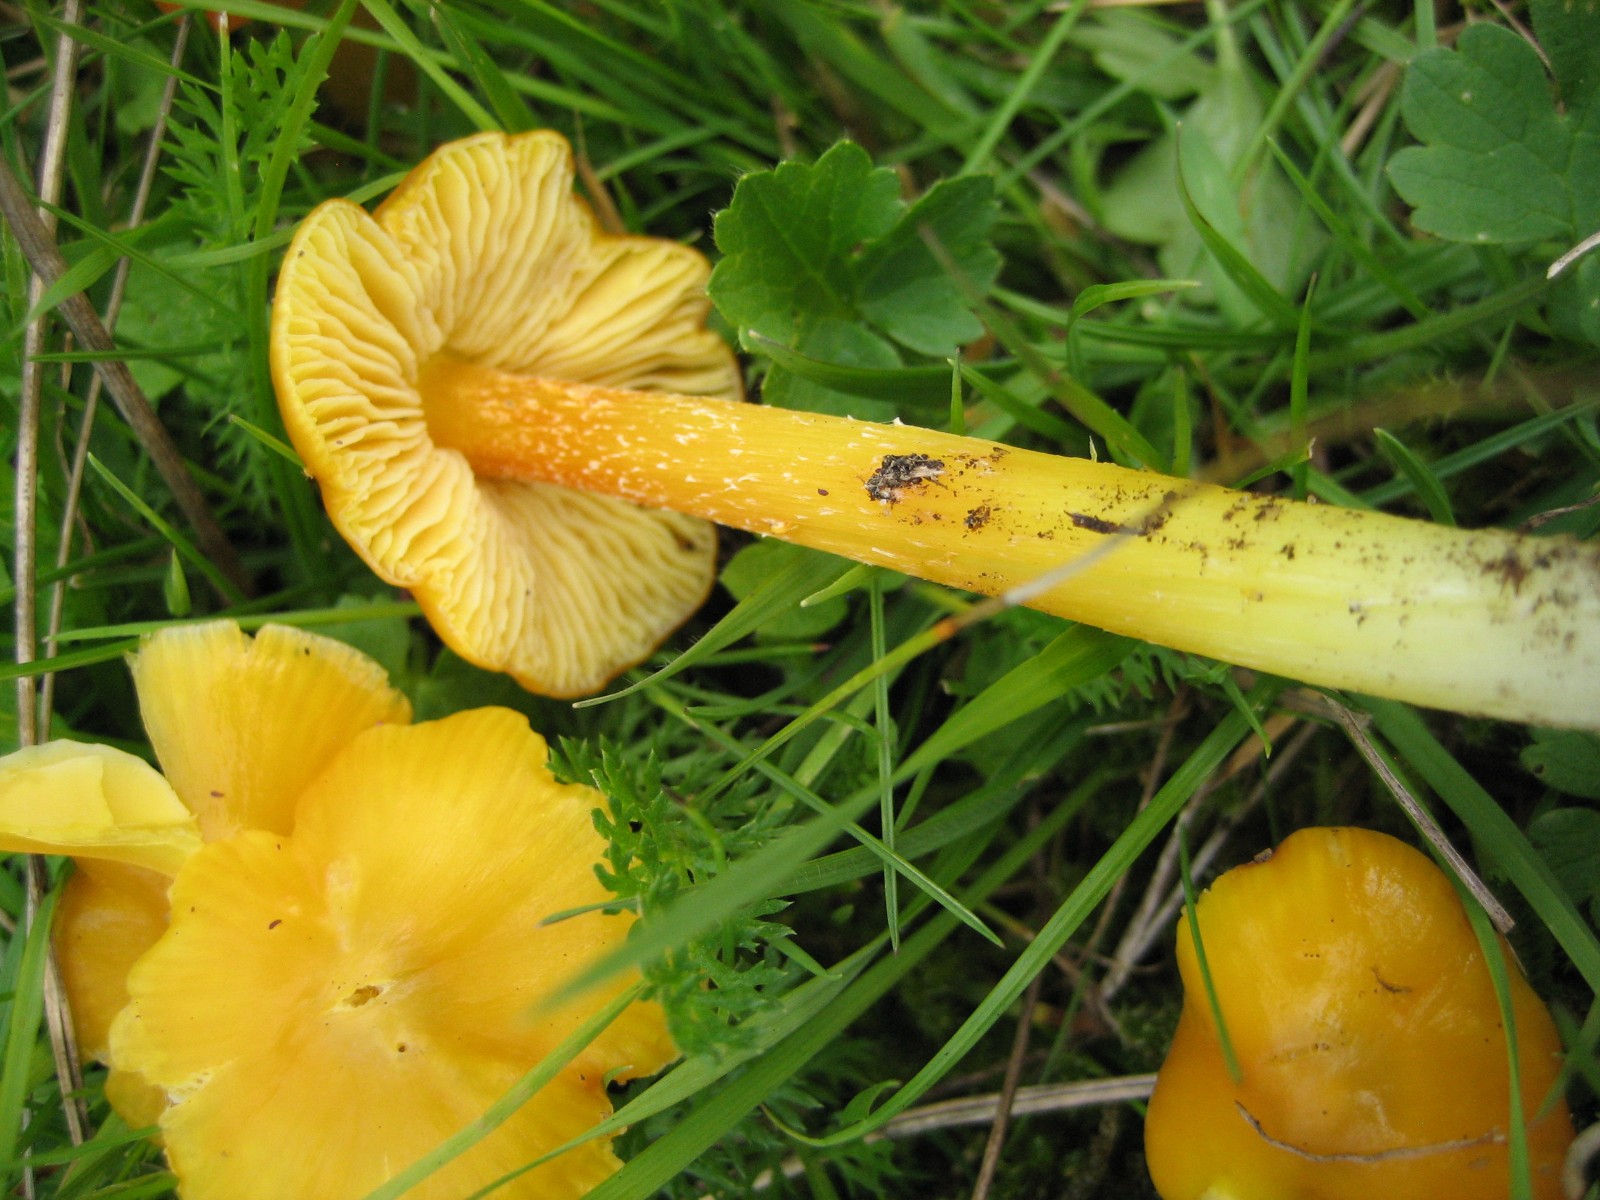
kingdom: Fungi
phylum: Basidiomycota
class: Agaricomycetes
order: Agaricales
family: Hygrophoraceae
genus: Hygrocybe
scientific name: Hygrocybe
